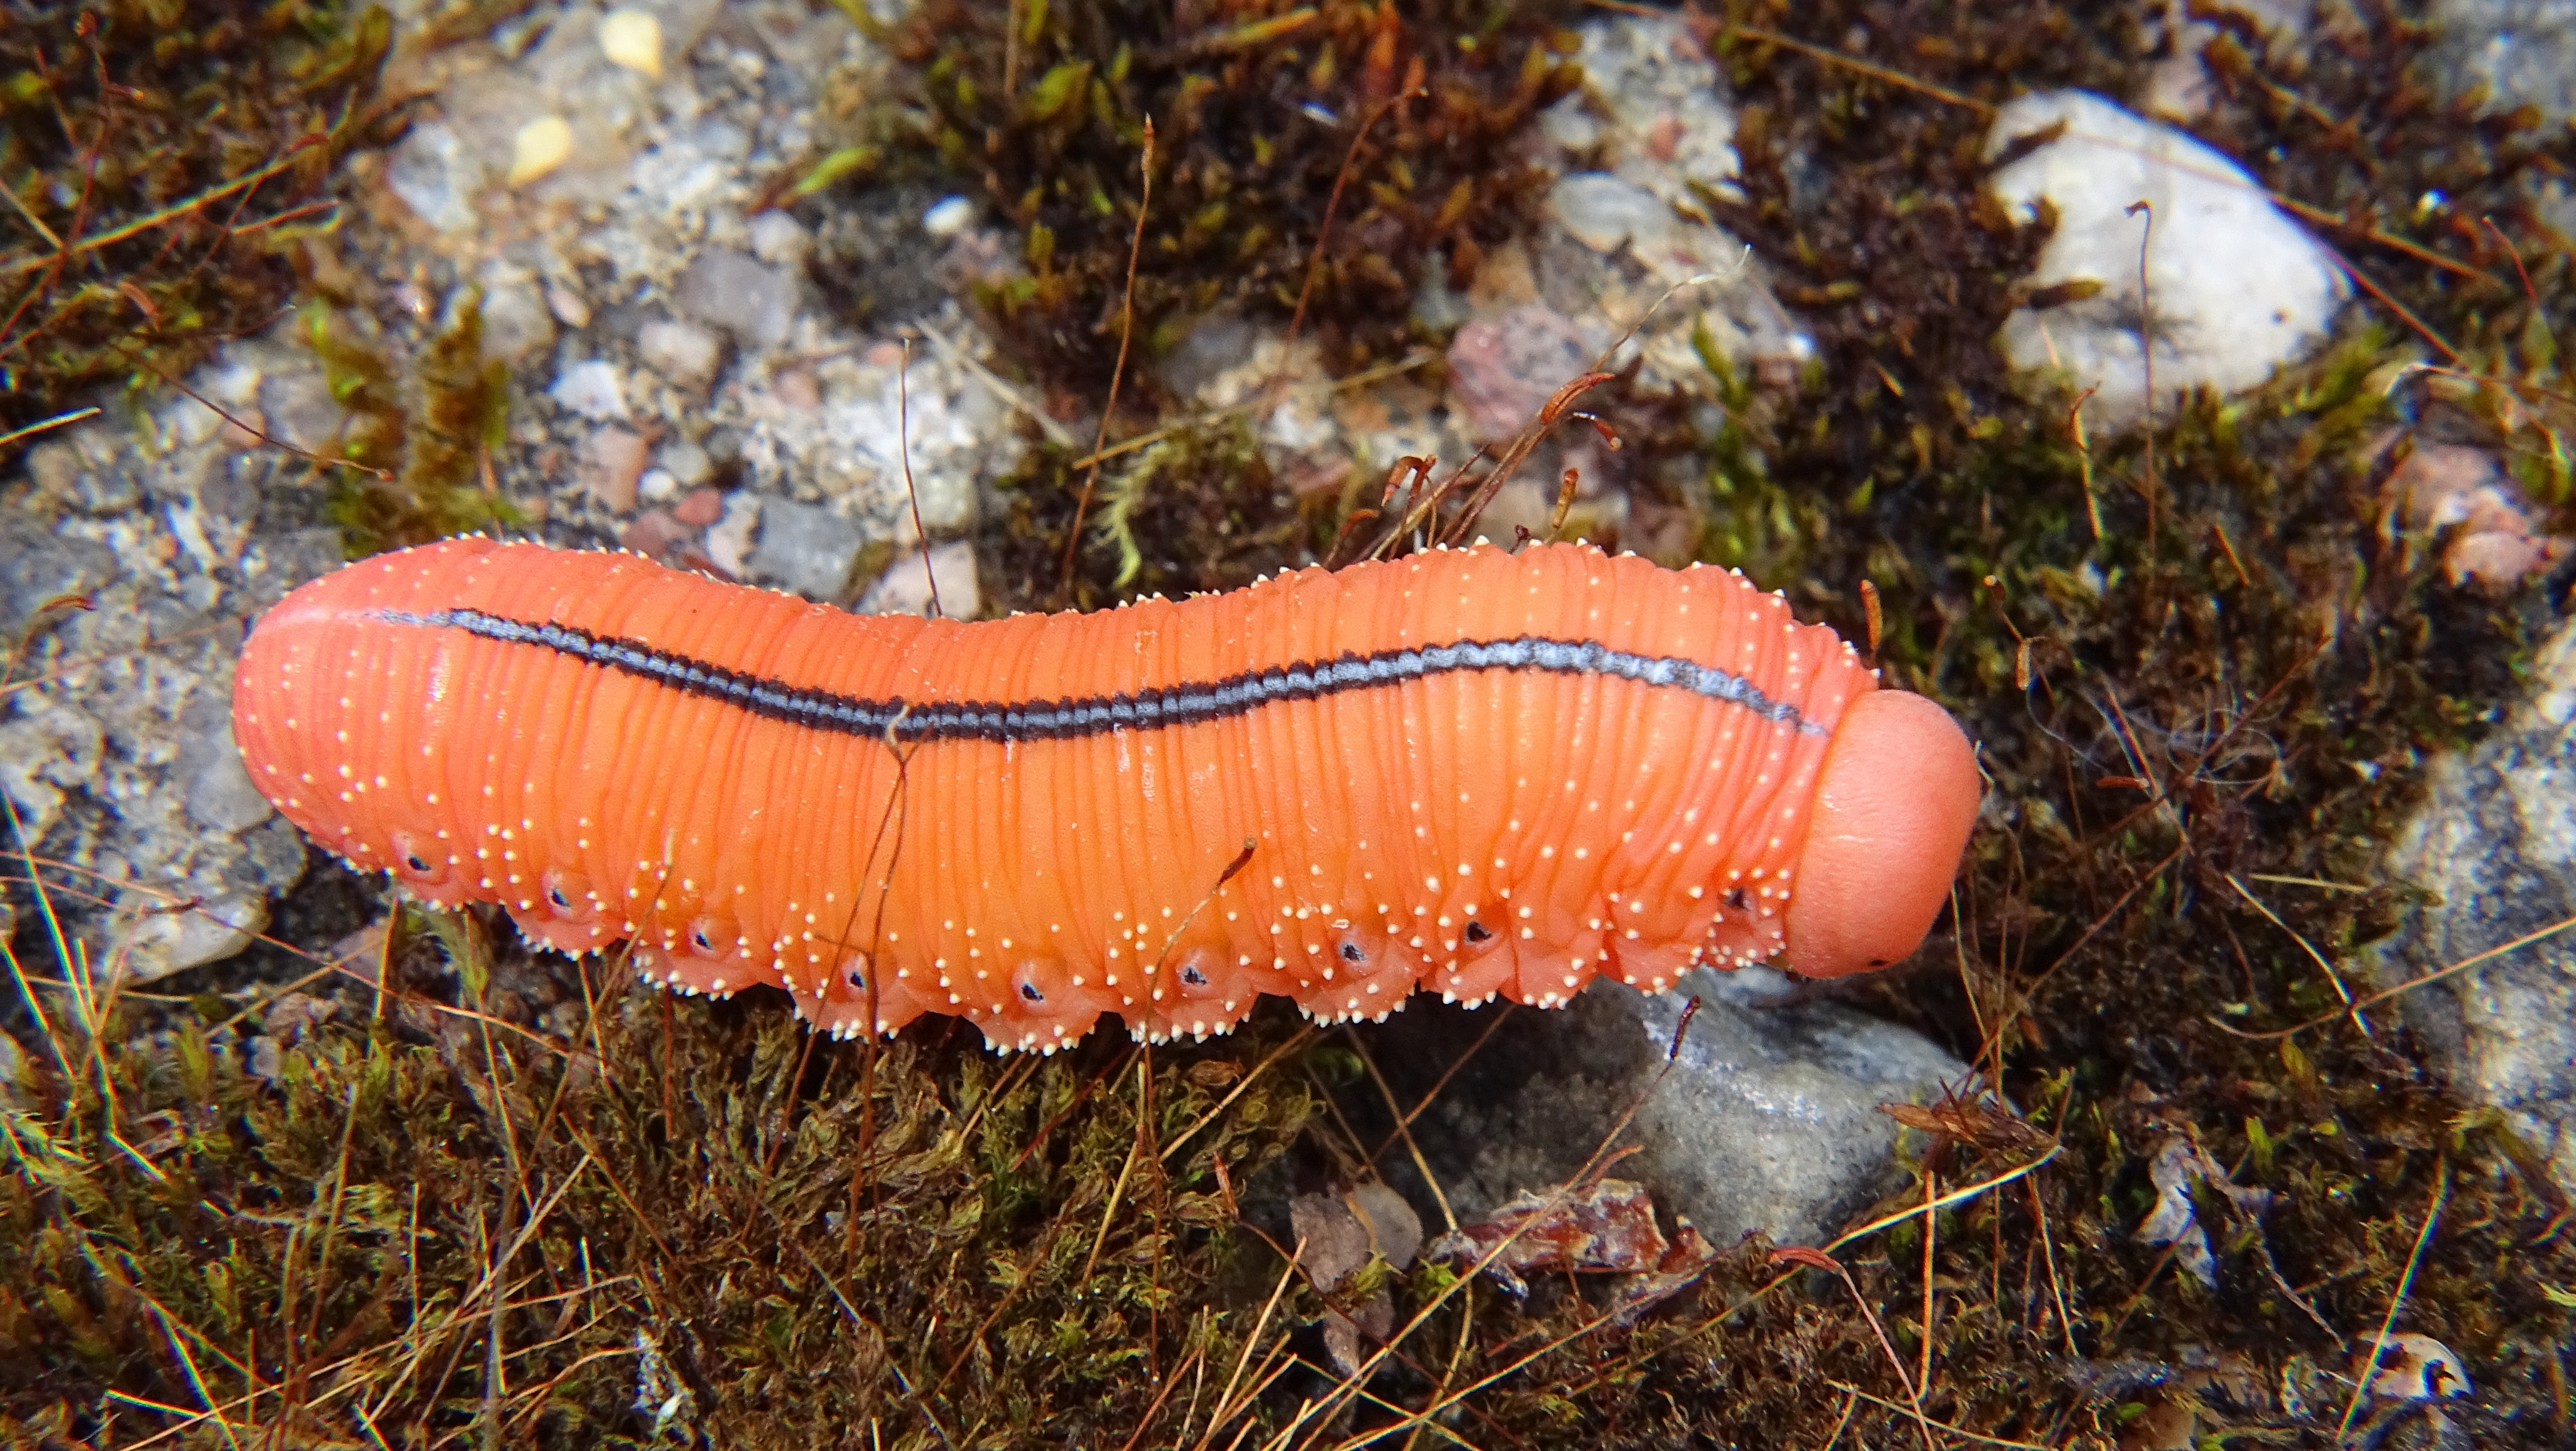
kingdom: Animalia
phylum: Arthropoda
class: Insecta
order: Hymenoptera
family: Cimbicidae
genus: Cimbex
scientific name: Cimbex luteus
